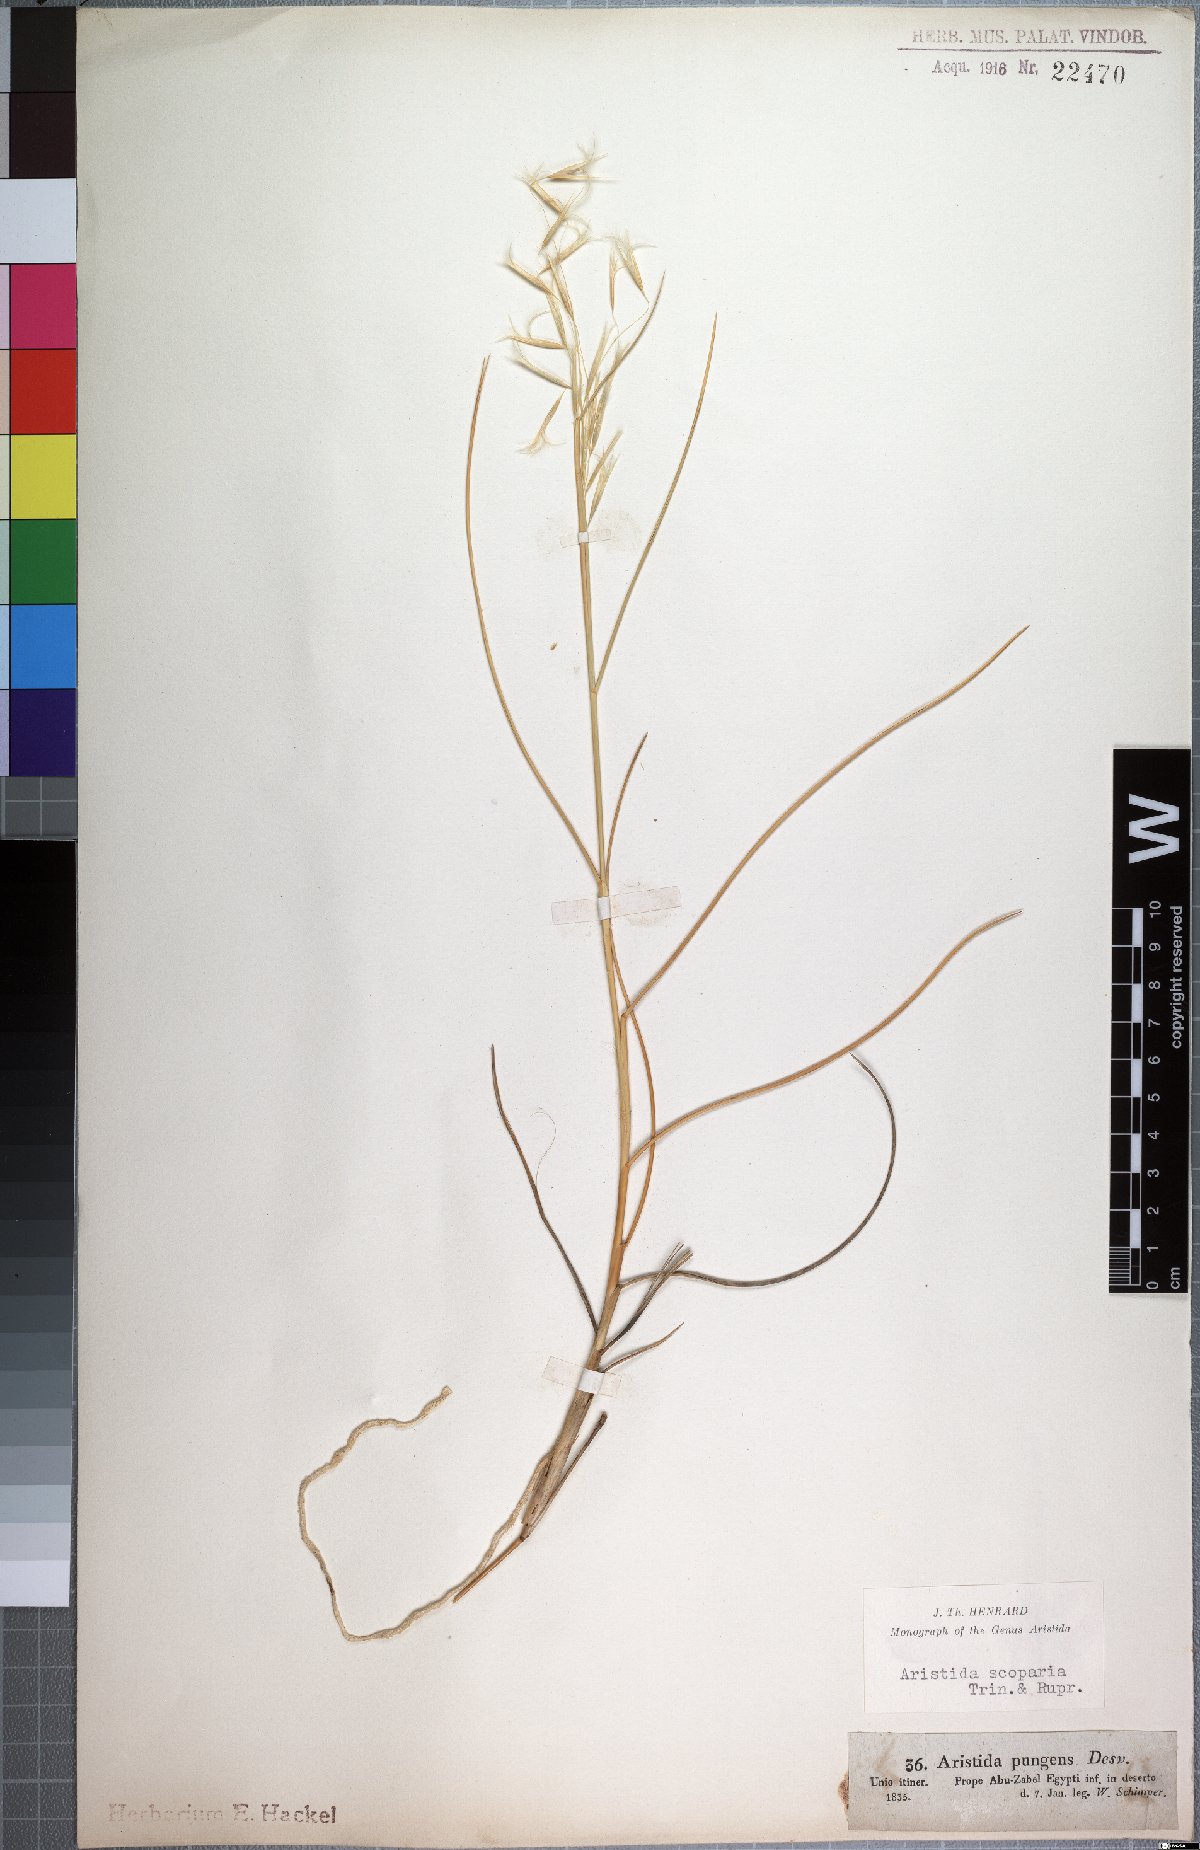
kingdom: Plantae
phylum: Tracheophyta
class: Liliopsida
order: Poales
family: Poaceae
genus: Stipagrostis
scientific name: Stipagrostis scoparia
